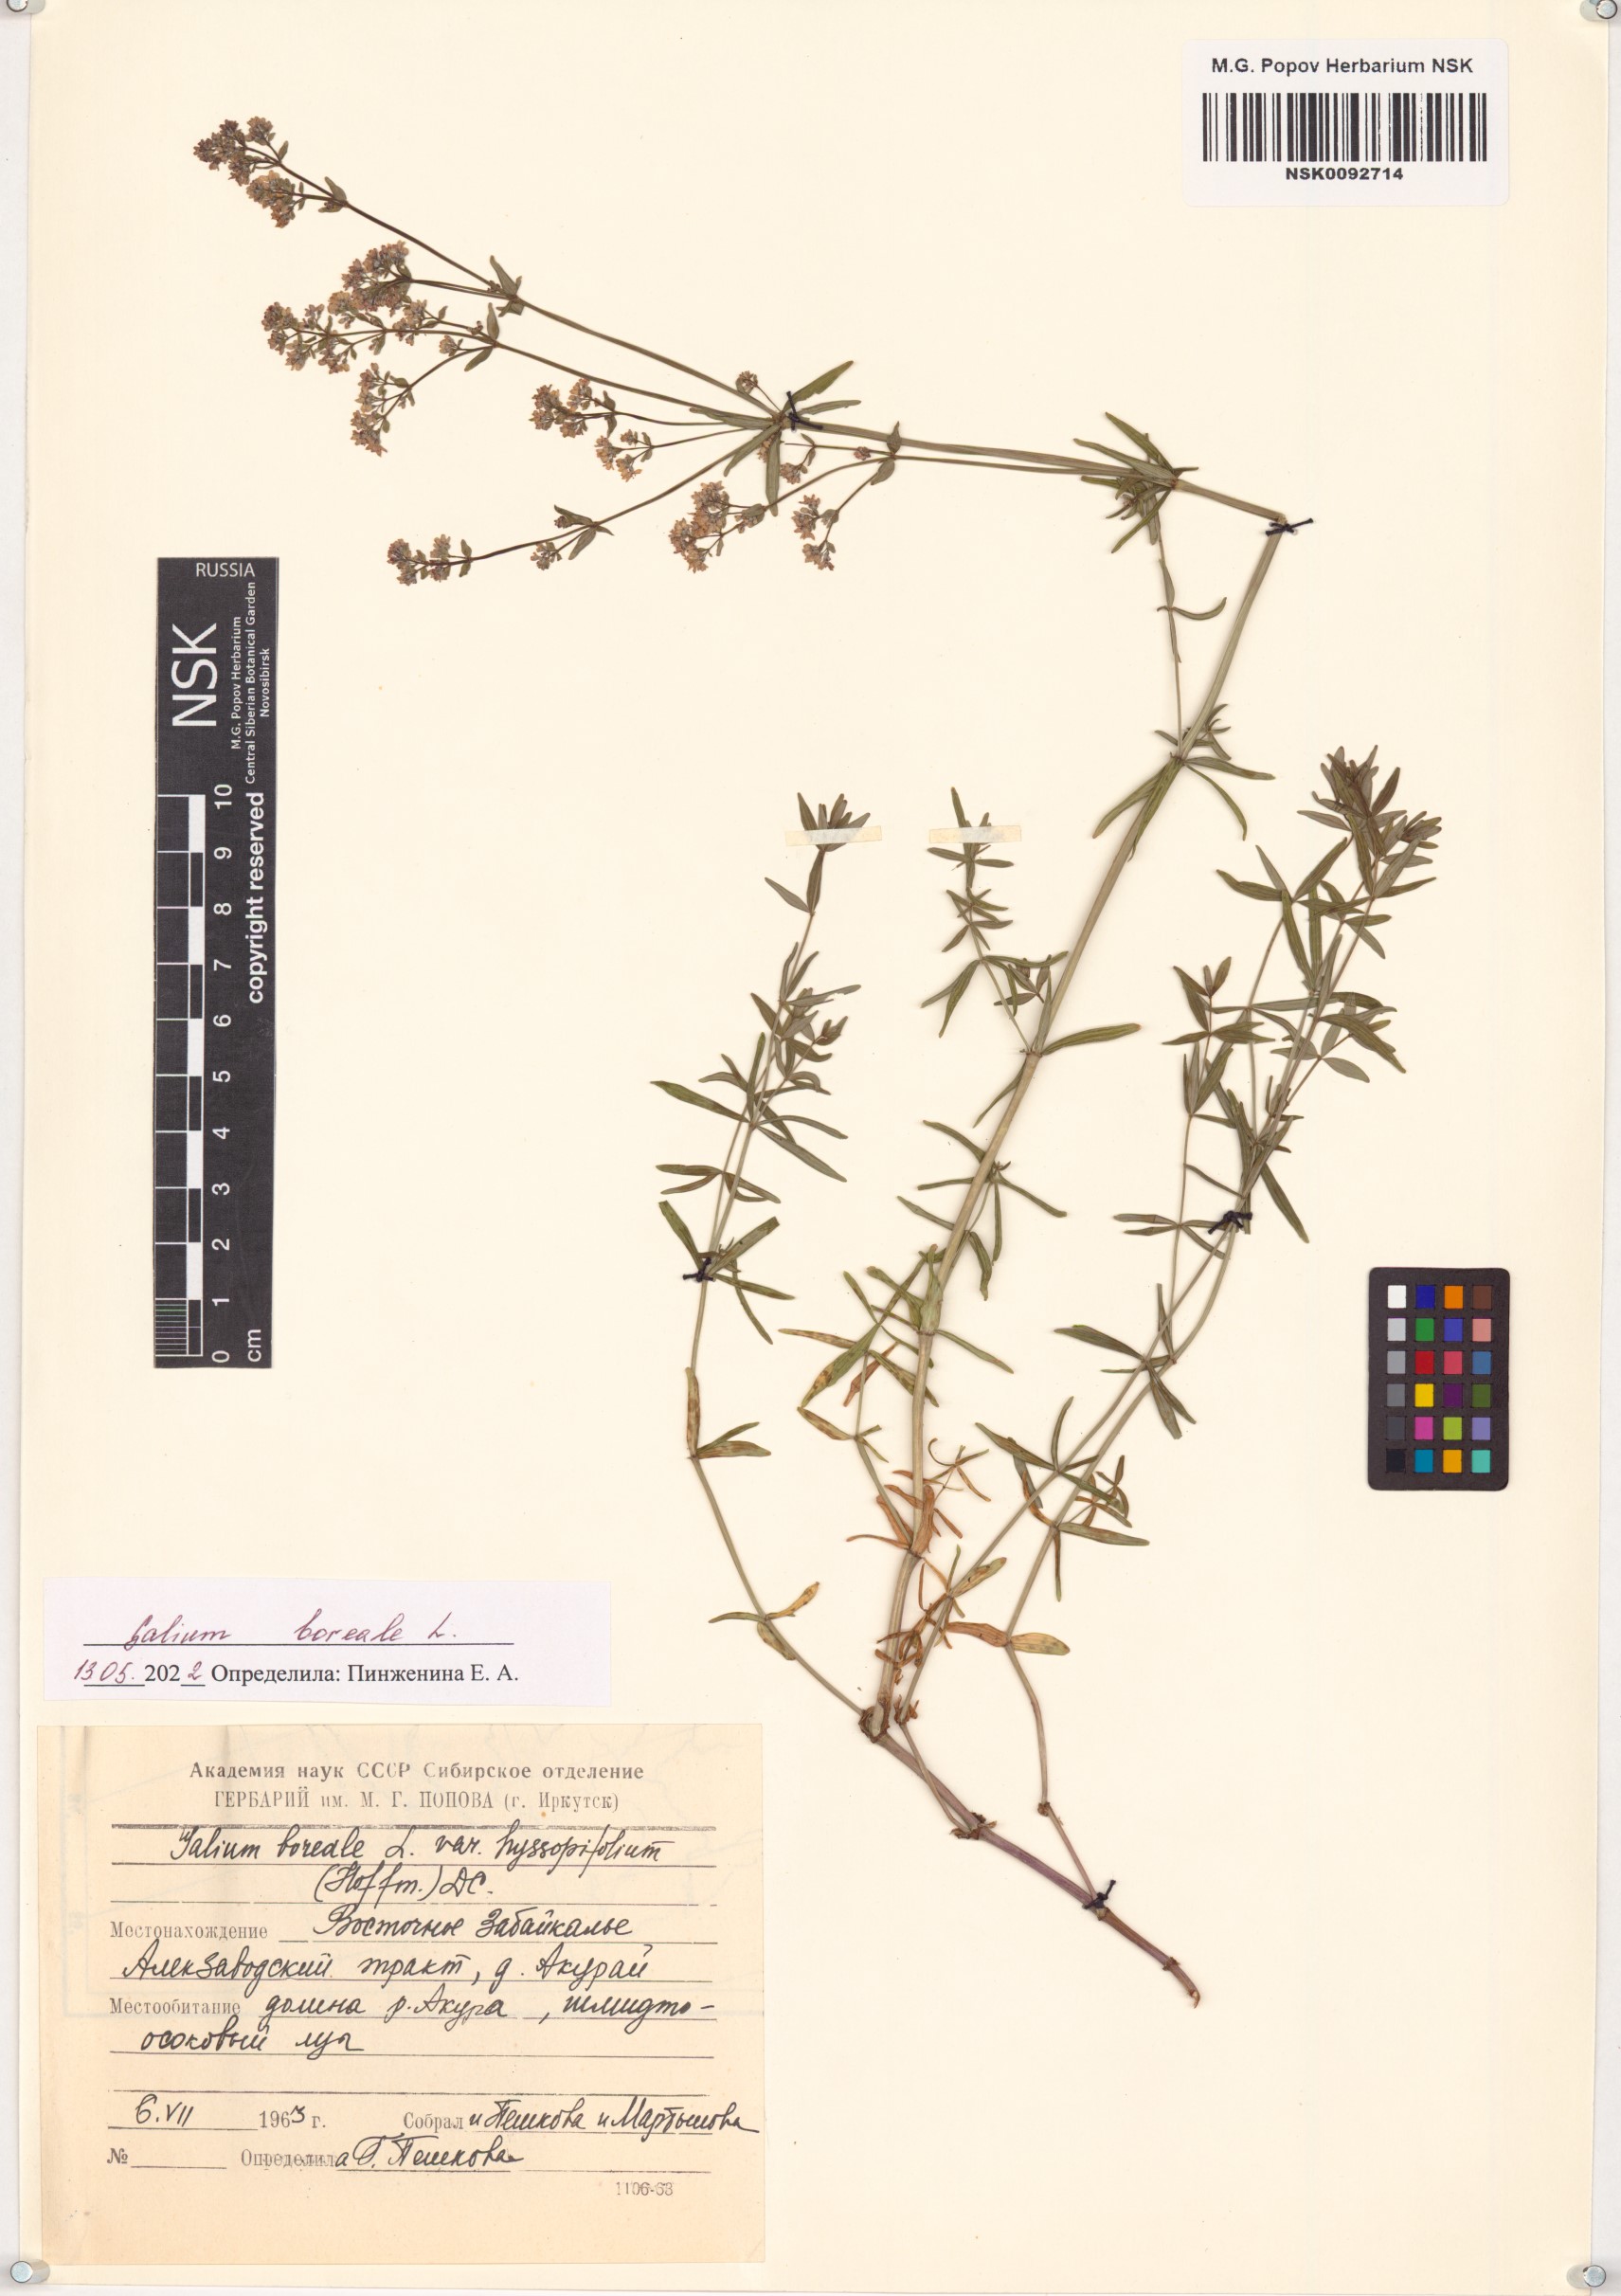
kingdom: Plantae
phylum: Tracheophyta
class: Magnoliopsida
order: Gentianales
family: Rubiaceae
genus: Galium
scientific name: Galium boreale
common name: Northern bedstraw
